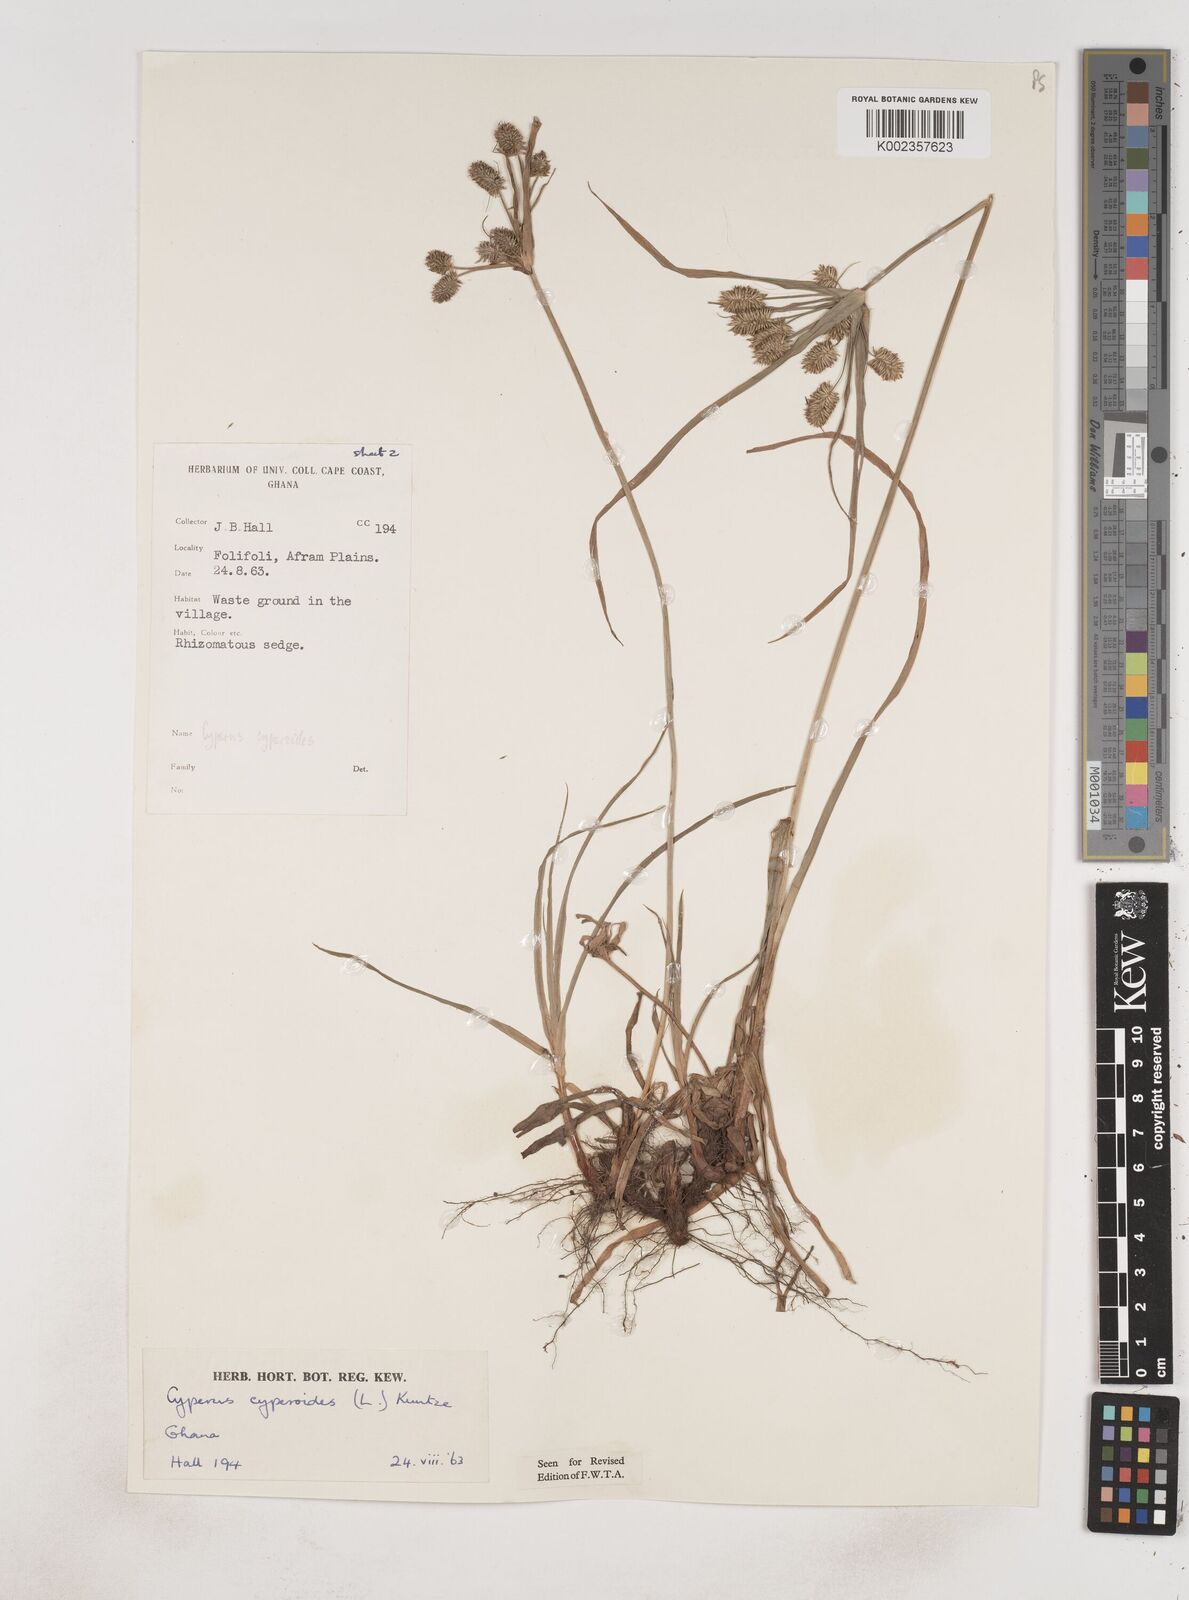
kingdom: Plantae
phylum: Tracheophyta
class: Liliopsida
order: Poales
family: Cyperaceae
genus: Cyperus
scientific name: Cyperus cyperoides
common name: Pacific island flat sedge
